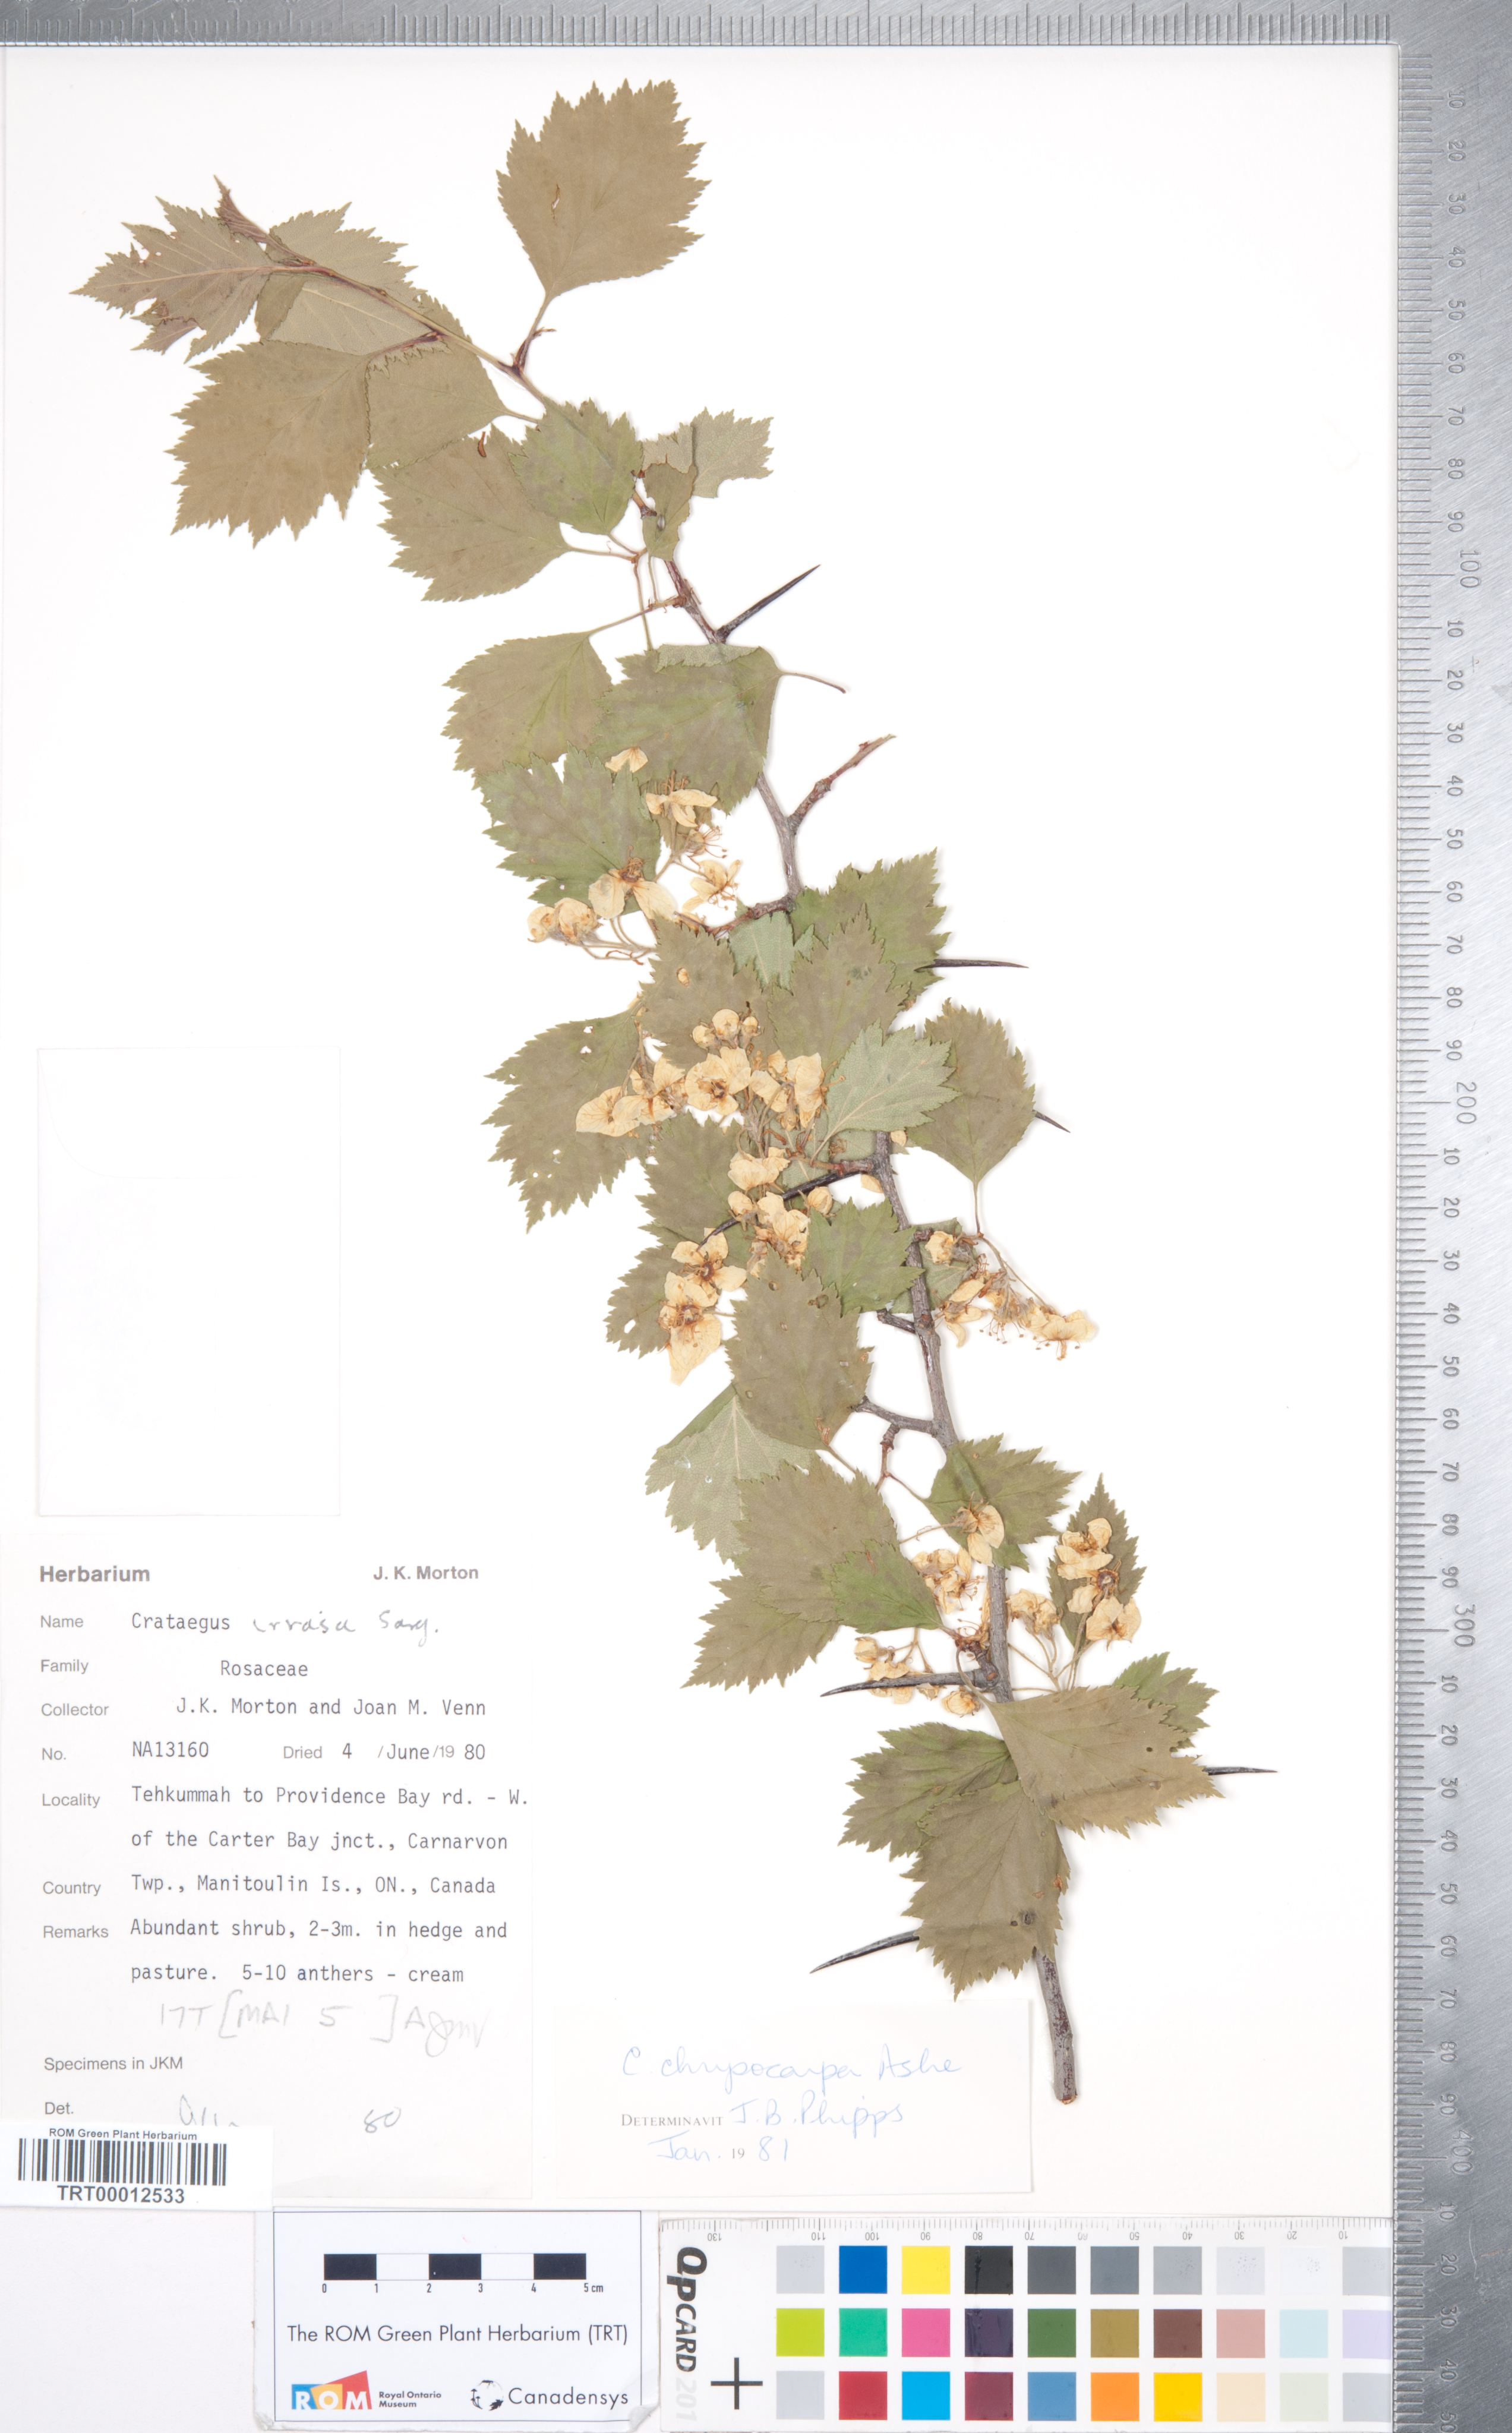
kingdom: Plantae
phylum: Tracheophyta
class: Magnoliopsida
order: Rosales
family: Rosaceae
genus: Crataegus
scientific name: Crataegus chrysocarpa
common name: Fire-berry hawthorn
